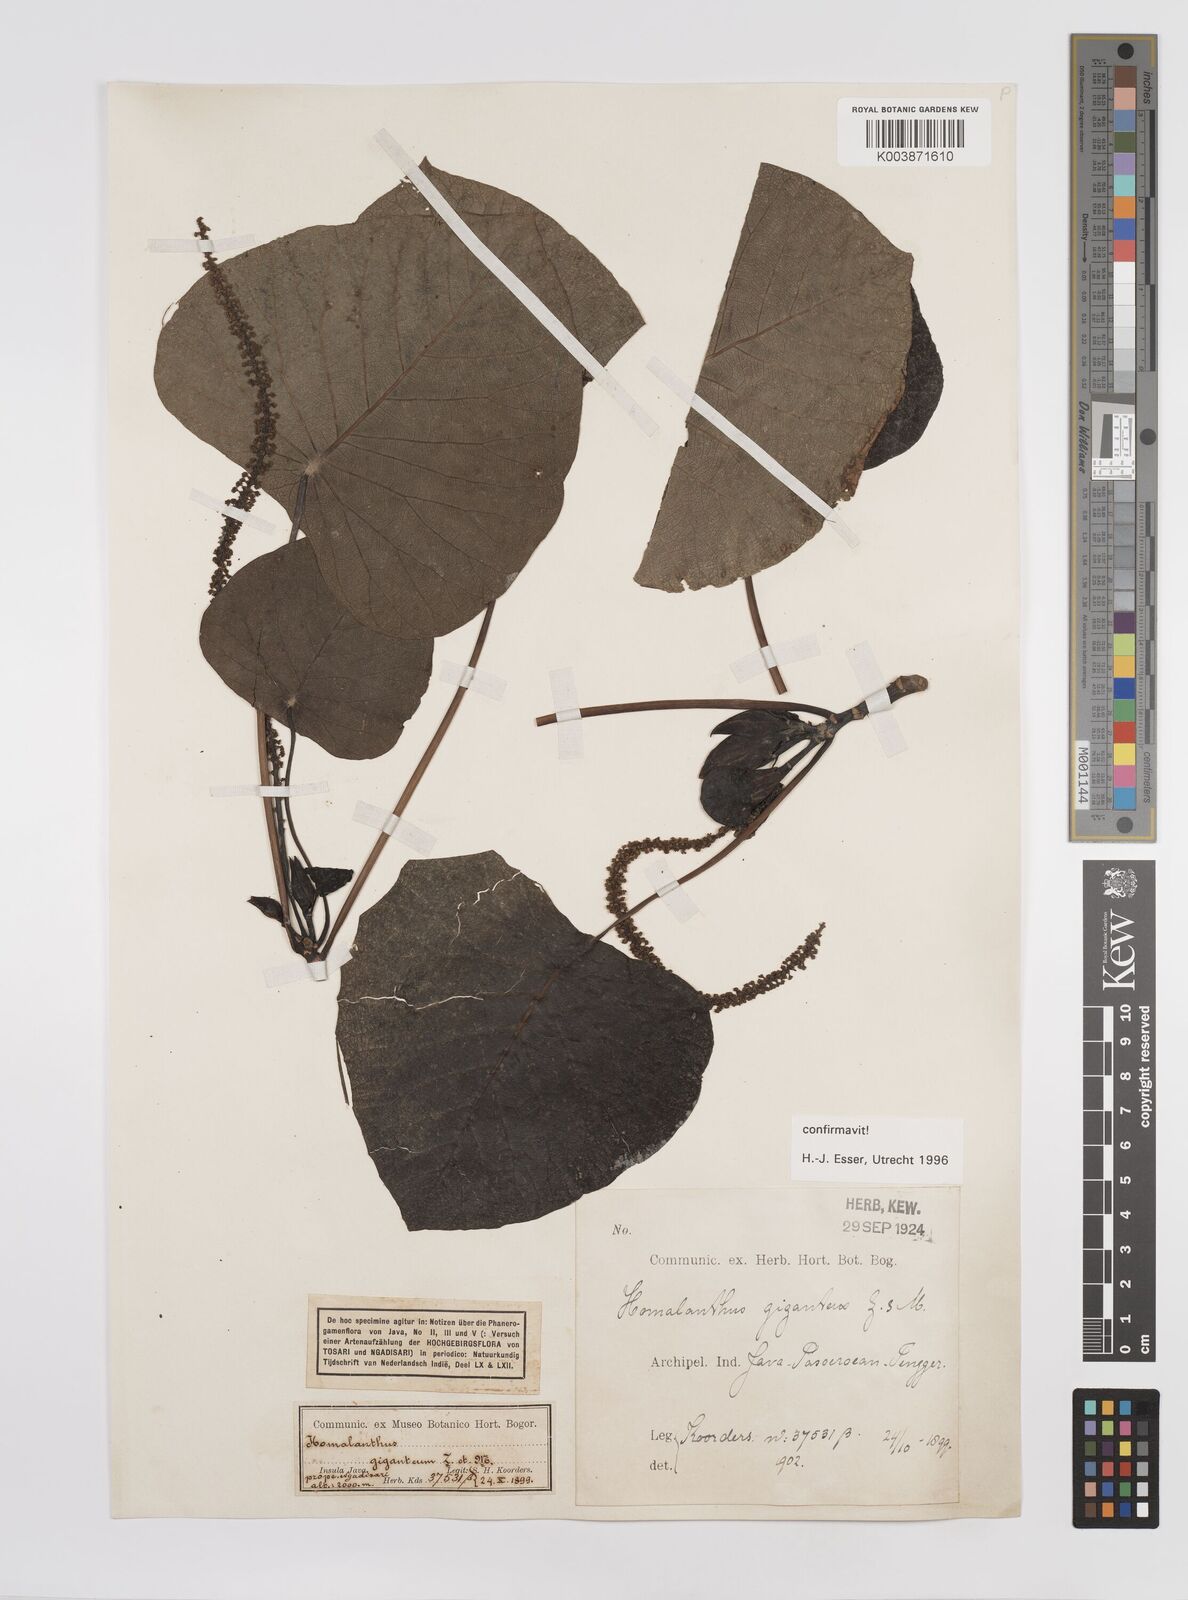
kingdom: Plantae
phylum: Tracheophyta
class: Magnoliopsida
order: Malpighiales
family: Euphorbiaceae
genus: Homalanthus
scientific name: Homalanthus giganteus
